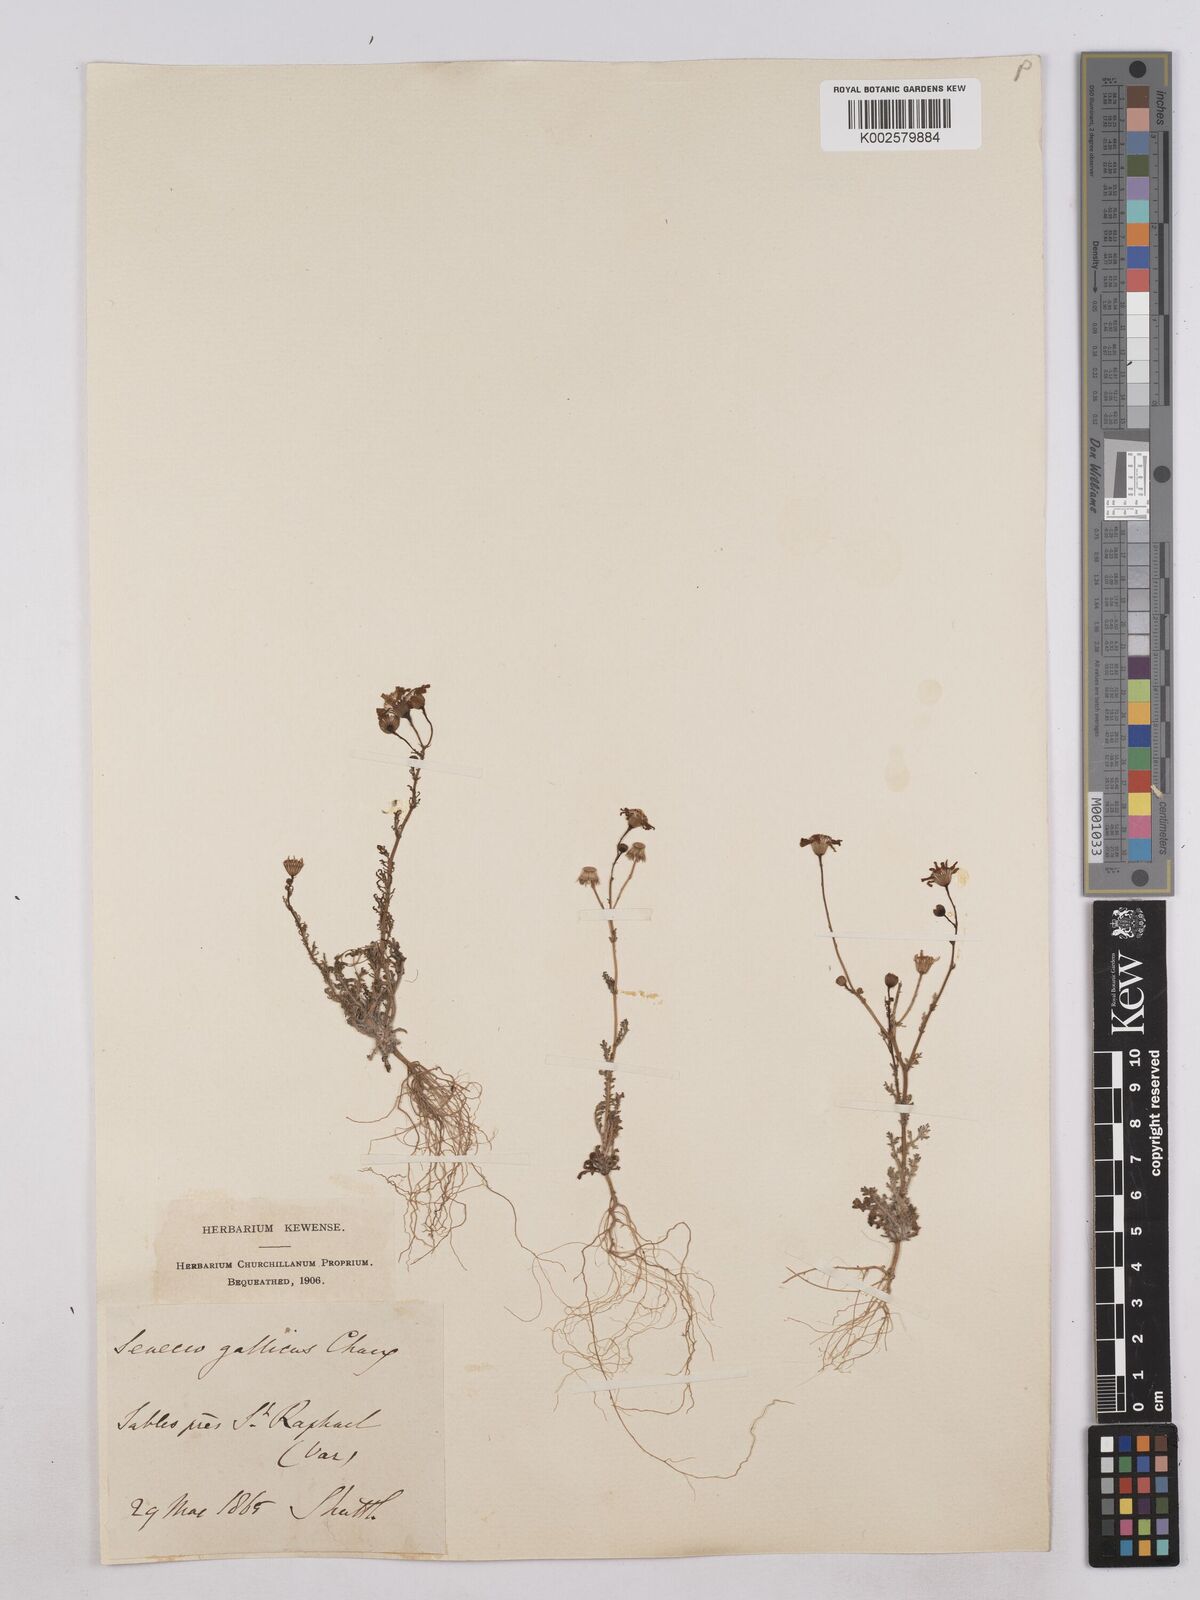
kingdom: Plantae
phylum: Tracheophyta
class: Magnoliopsida
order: Asterales
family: Asteraceae
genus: Senecio
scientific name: Senecio gallicus
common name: French groundsel
